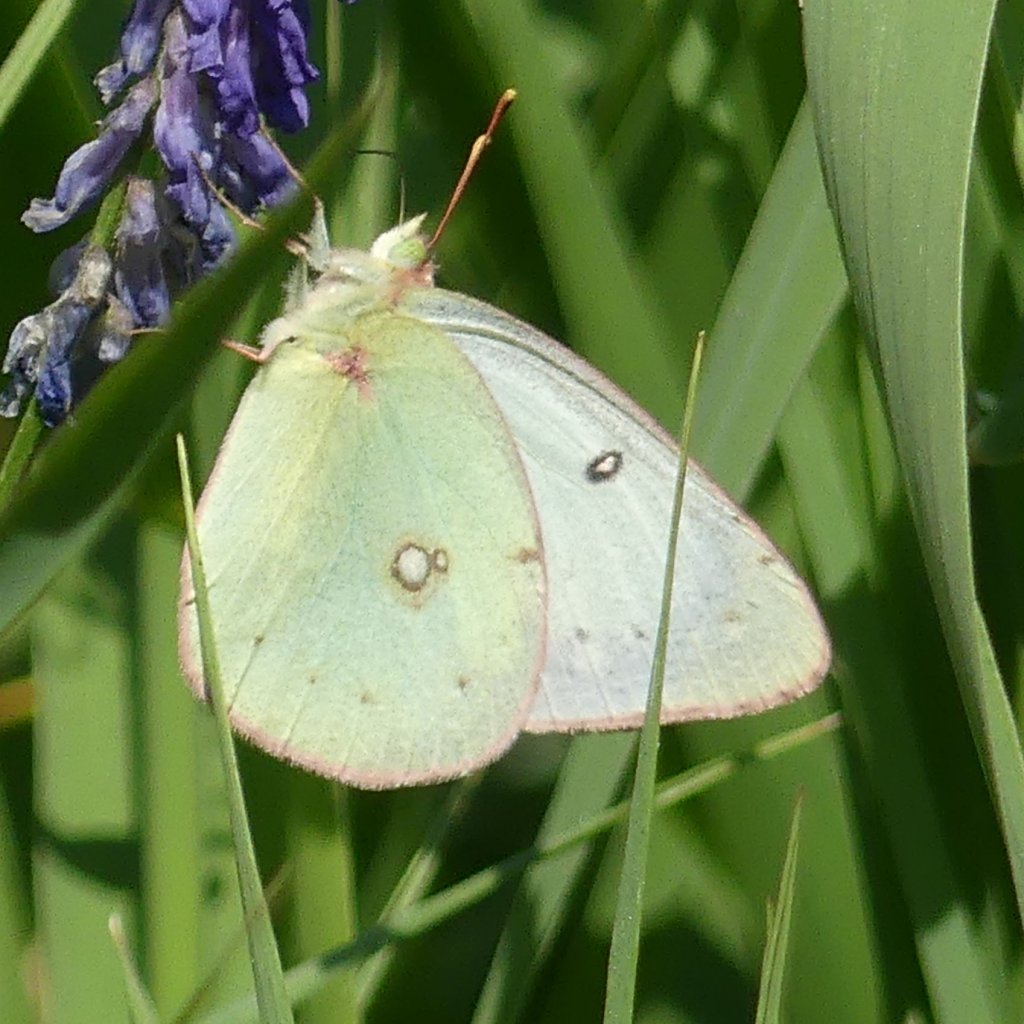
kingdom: Animalia
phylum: Arthropoda
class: Insecta
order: Lepidoptera
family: Pieridae
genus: Colias
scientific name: Colias philodice
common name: Clouded Sulphur
